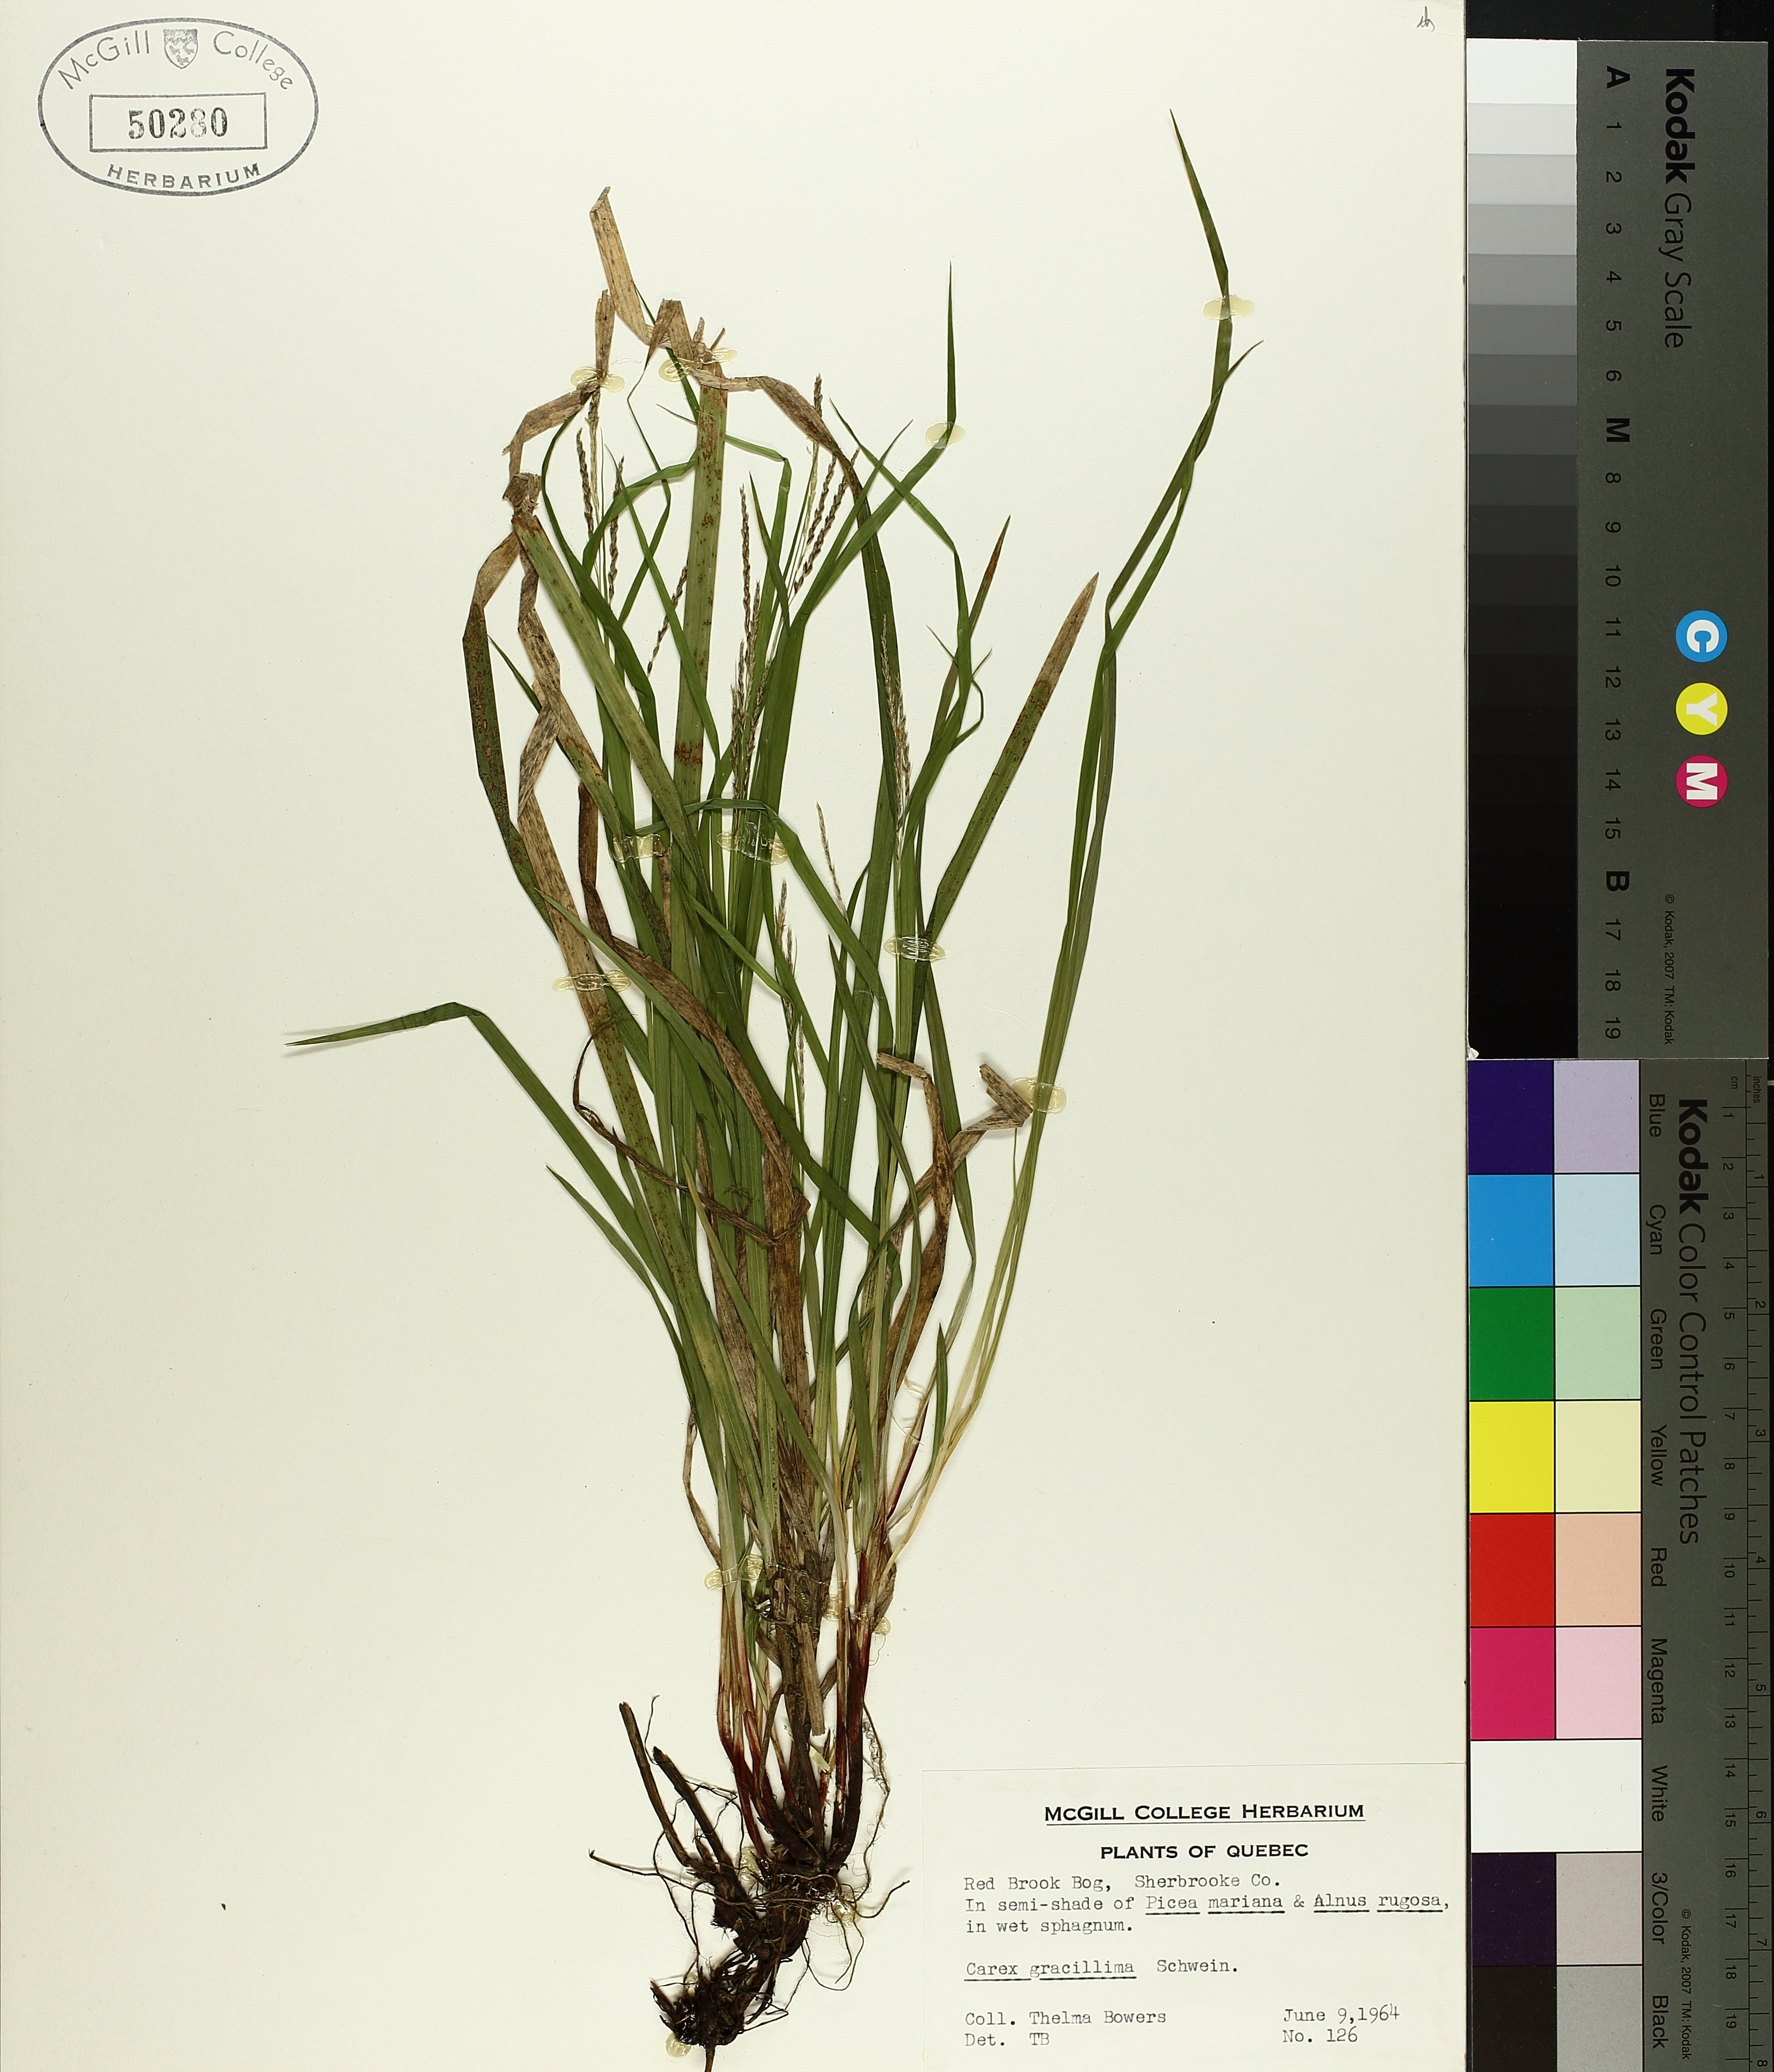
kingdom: Plantae
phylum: Tracheophyta
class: Liliopsida
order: Poales
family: Cyperaceae
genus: Carex
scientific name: Carex gracillima
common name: Graceful sedge
